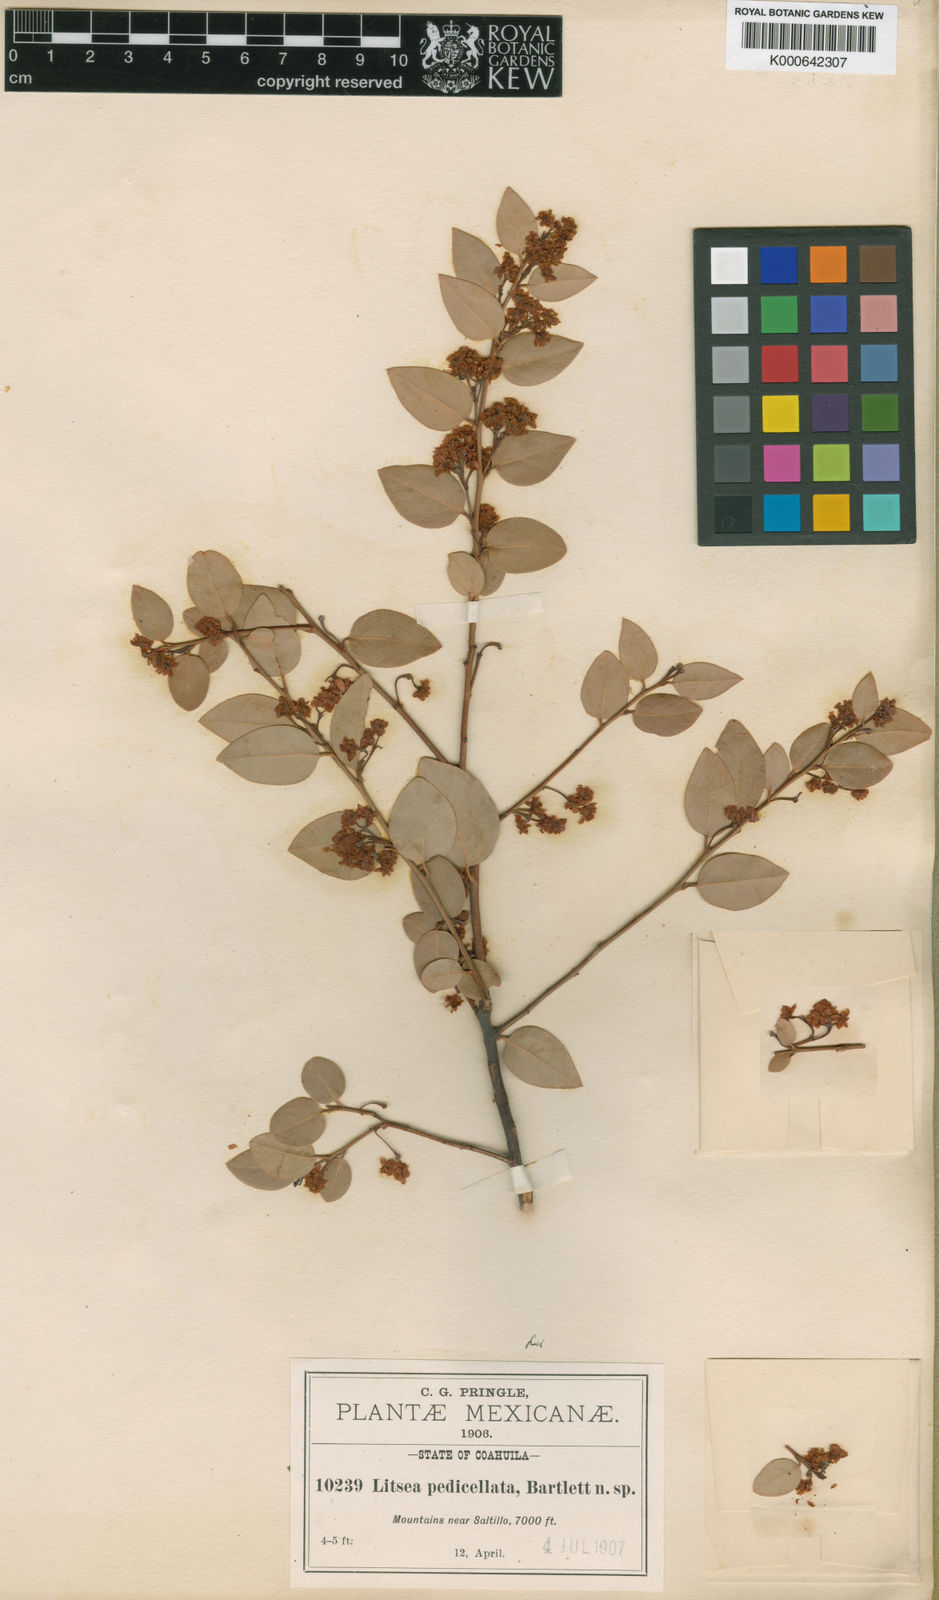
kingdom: Plantae
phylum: Tracheophyta
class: Magnoliopsida
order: Laurales
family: Lauraceae
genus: Litsea
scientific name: Litsea parvifolia
